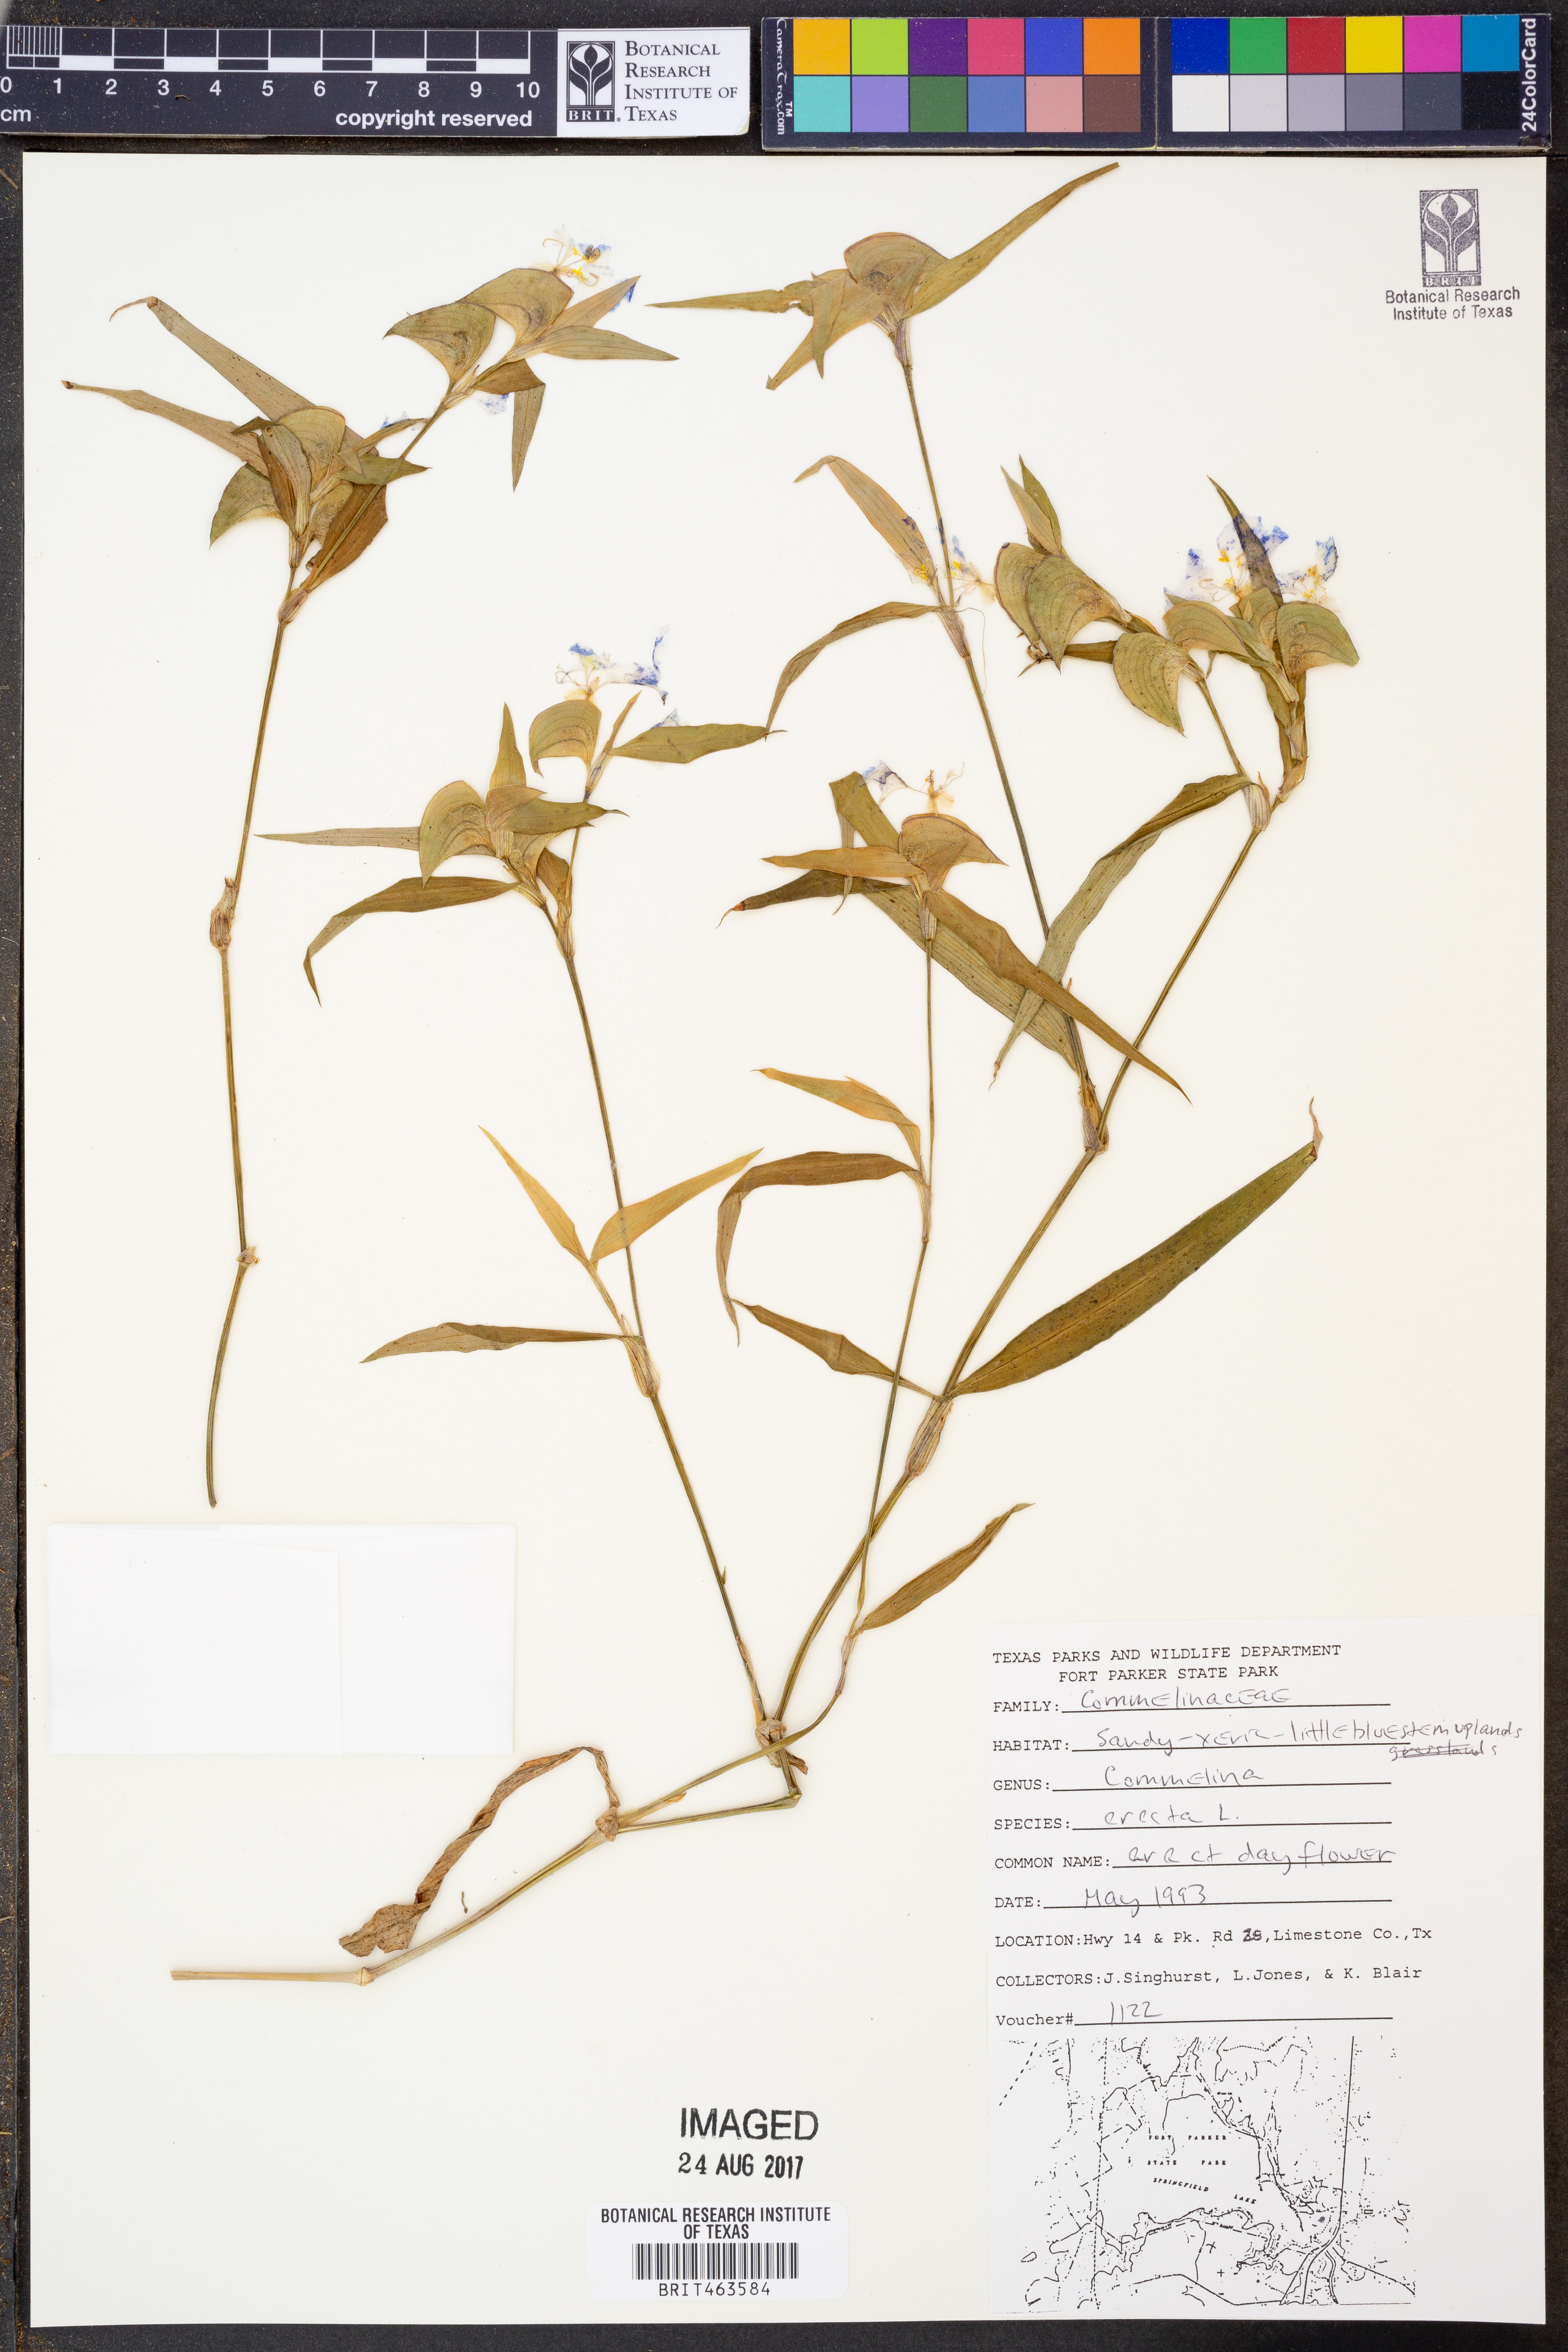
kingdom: Plantae
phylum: Tracheophyta
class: Liliopsida
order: Commelinales
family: Commelinaceae
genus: Commelina
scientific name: Commelina erecta
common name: Blousel blommetjie
